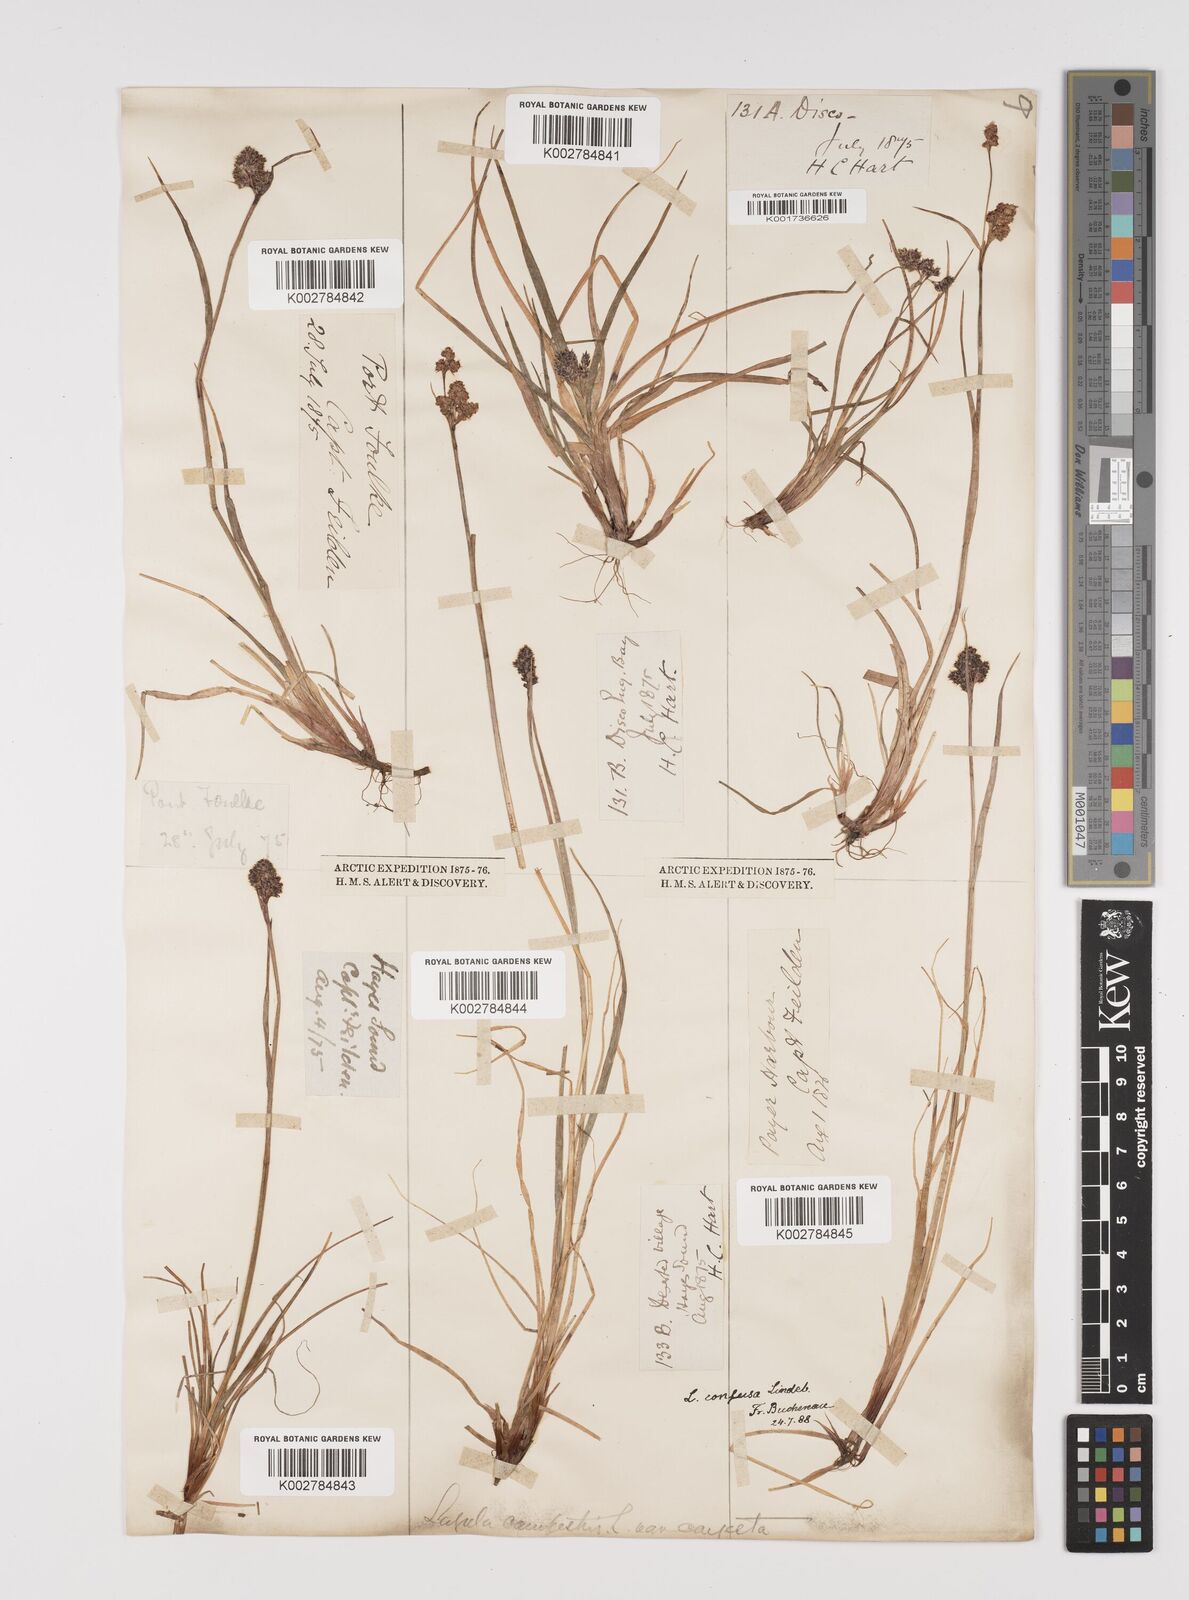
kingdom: Plantae
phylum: Tracheophyta
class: Liliopsida
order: Poales
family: Juncaceae
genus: Luzula
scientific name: Luzula confusa
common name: Northern wood rush
